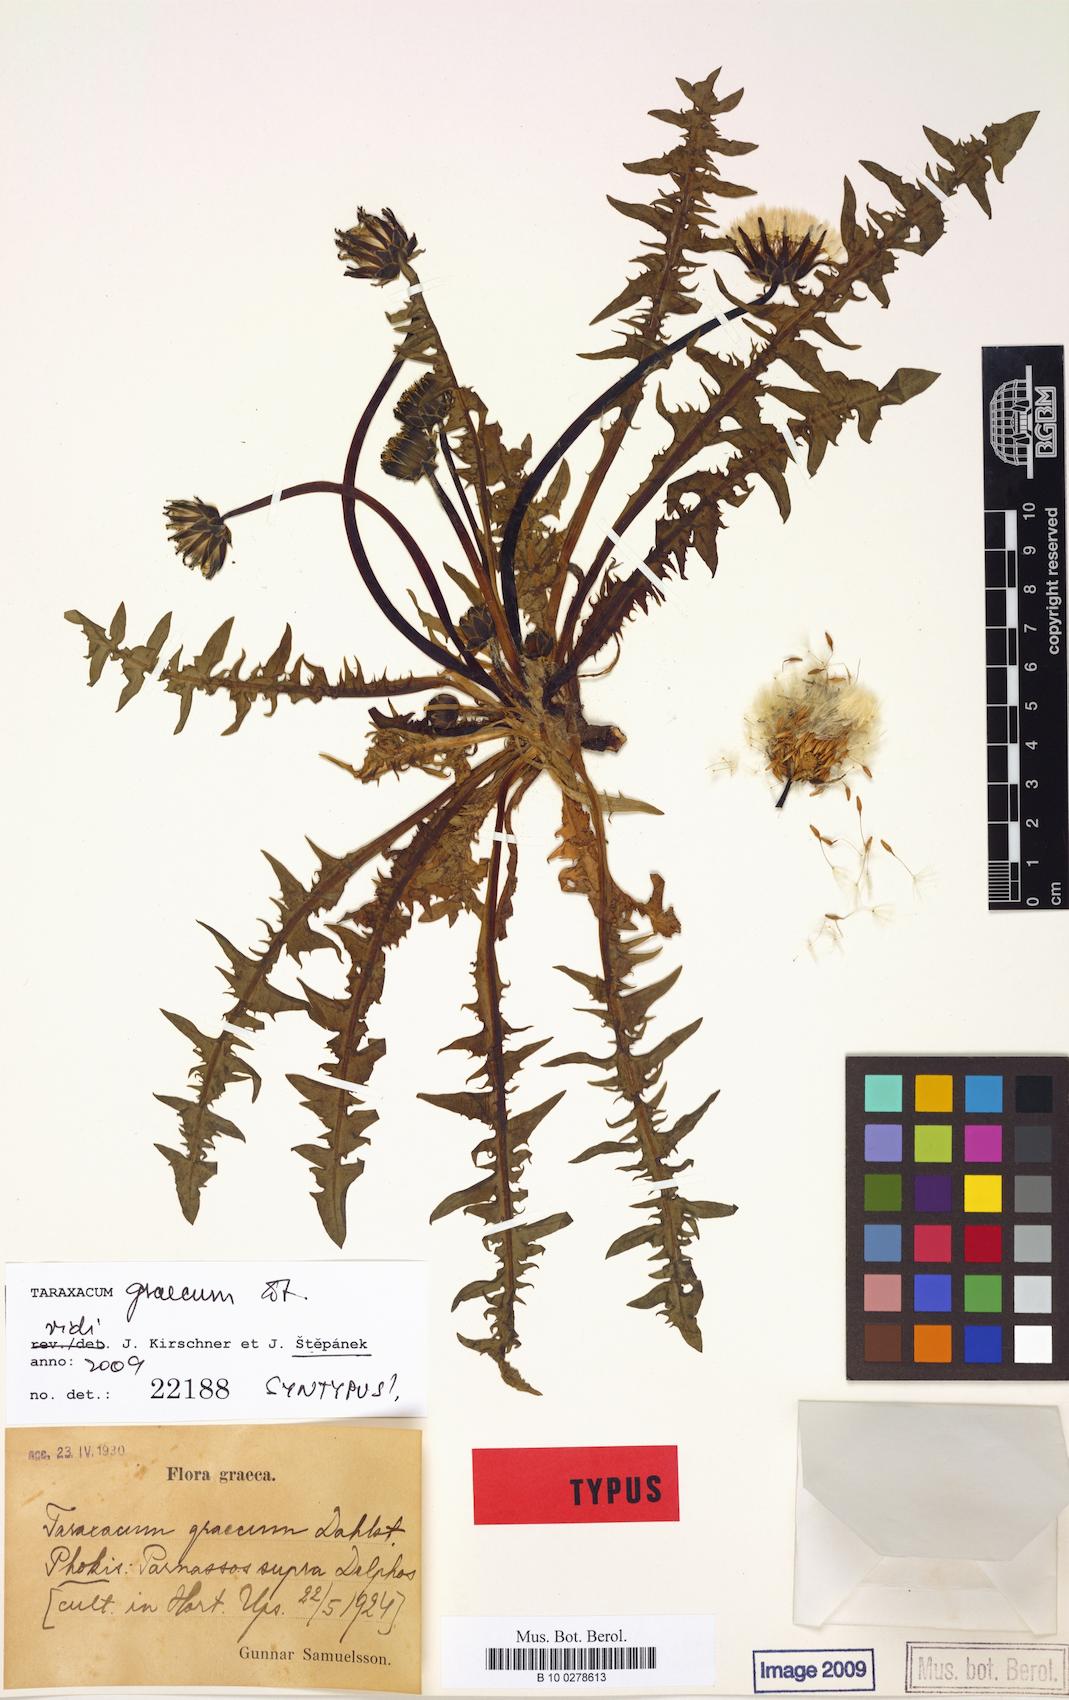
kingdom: Plantae
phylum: Tracheophyta
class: Magnoliopsida
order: Asterales
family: Asteraceae
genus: Taraxacum
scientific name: Taraxacum graecum
